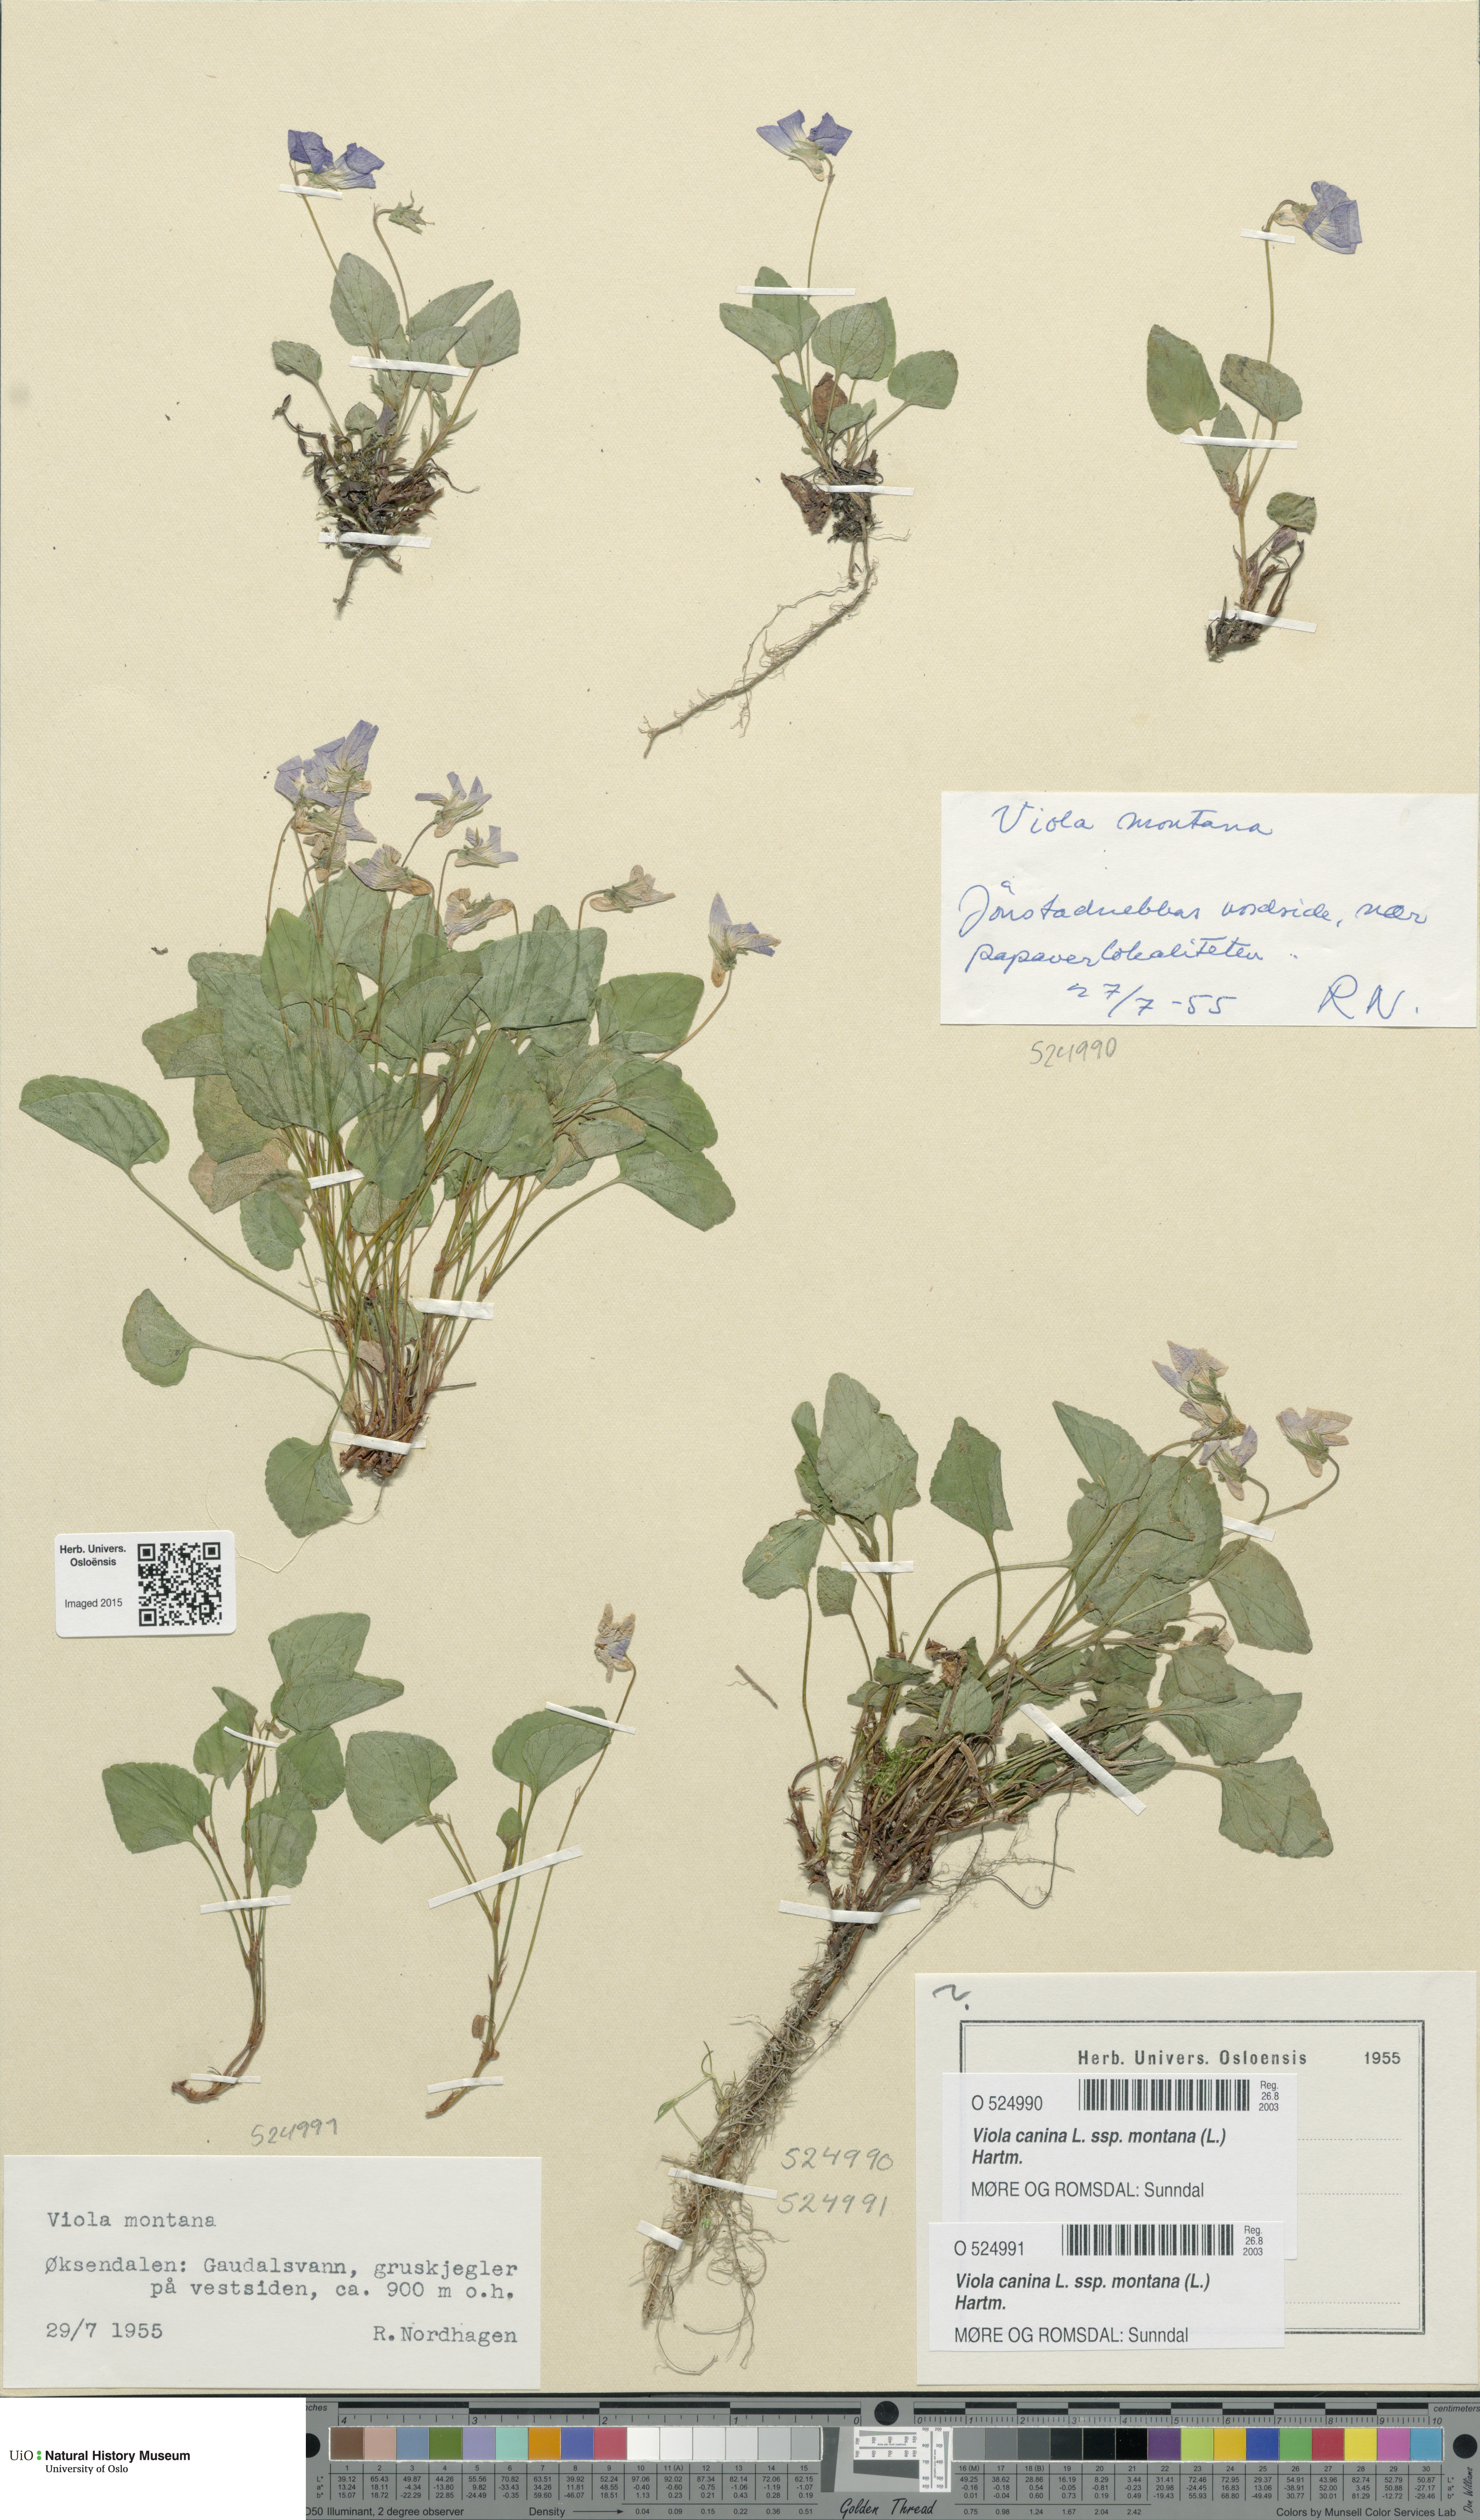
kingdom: Plantae
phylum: Tracheophyta
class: Magnoliopsida
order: Malpighiales
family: Violaceae
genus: Viola
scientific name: Viola ruppii
